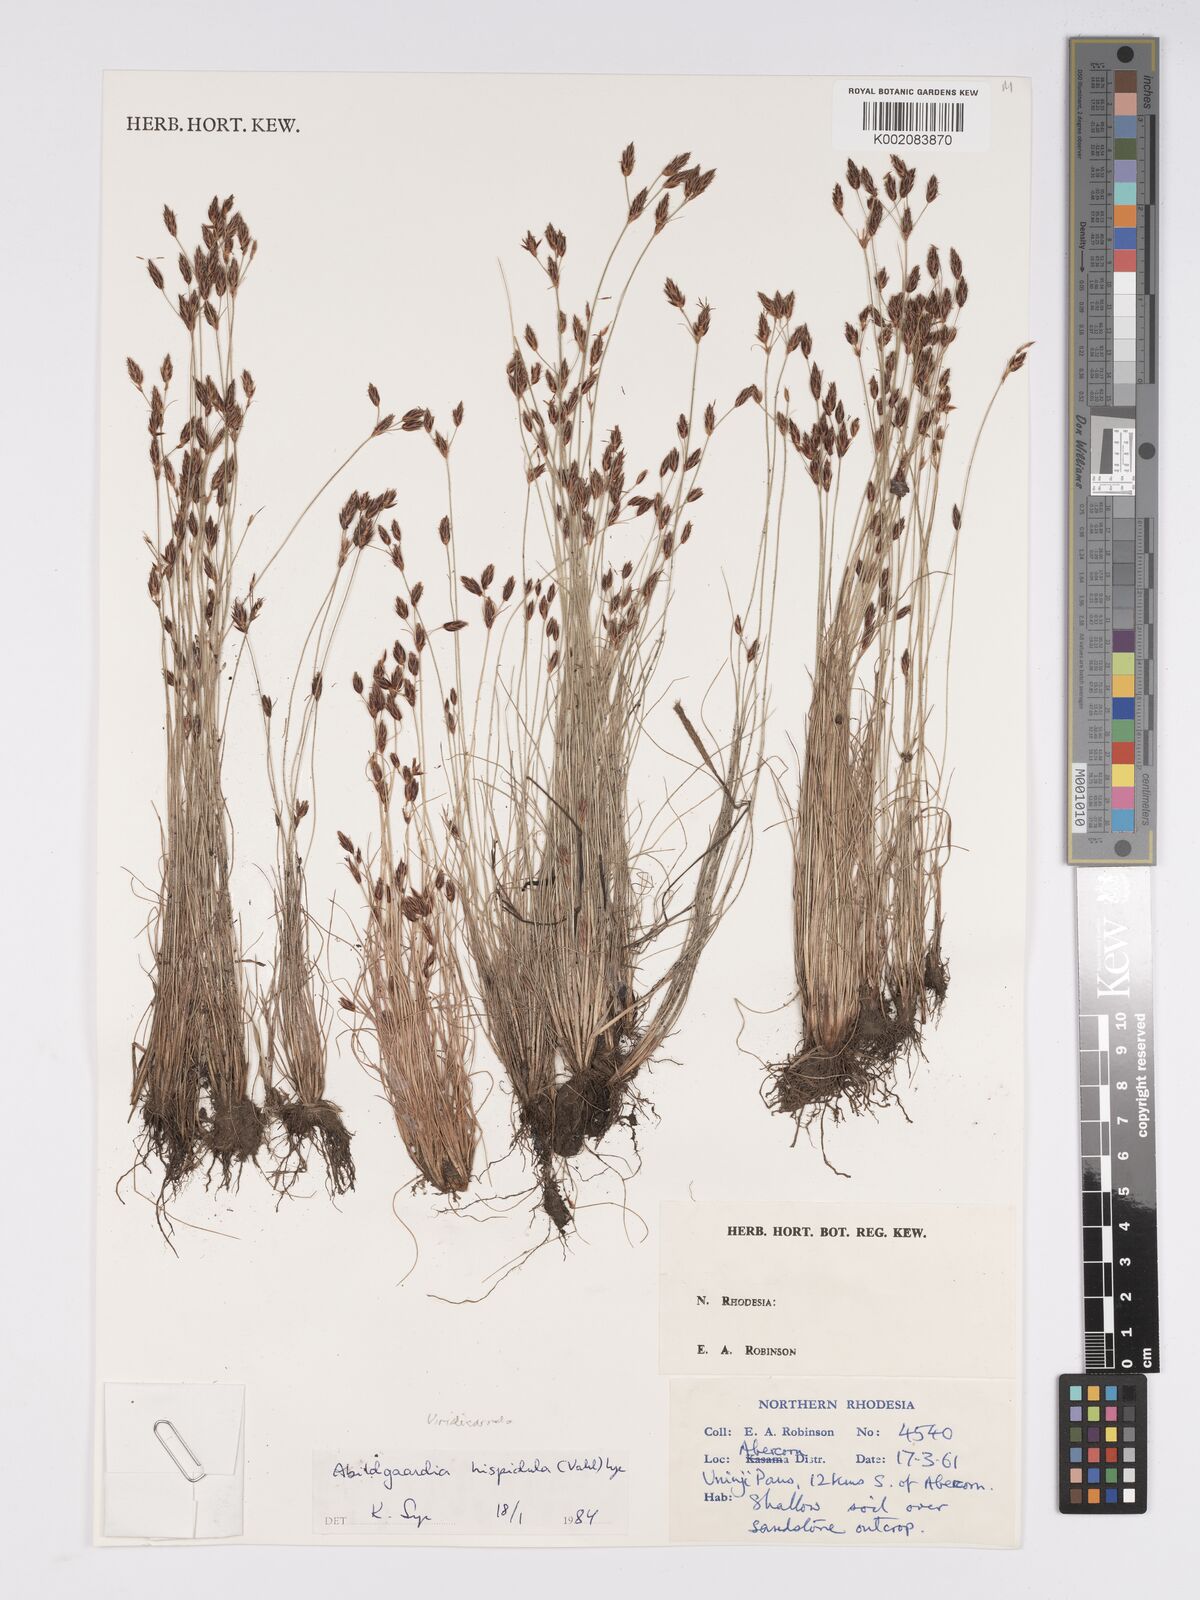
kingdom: Plantae
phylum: Tracheophyta
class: Liliopsida
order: Poales
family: Cyperaceae
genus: Bulbostylis
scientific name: Bulbostylis hispidula
